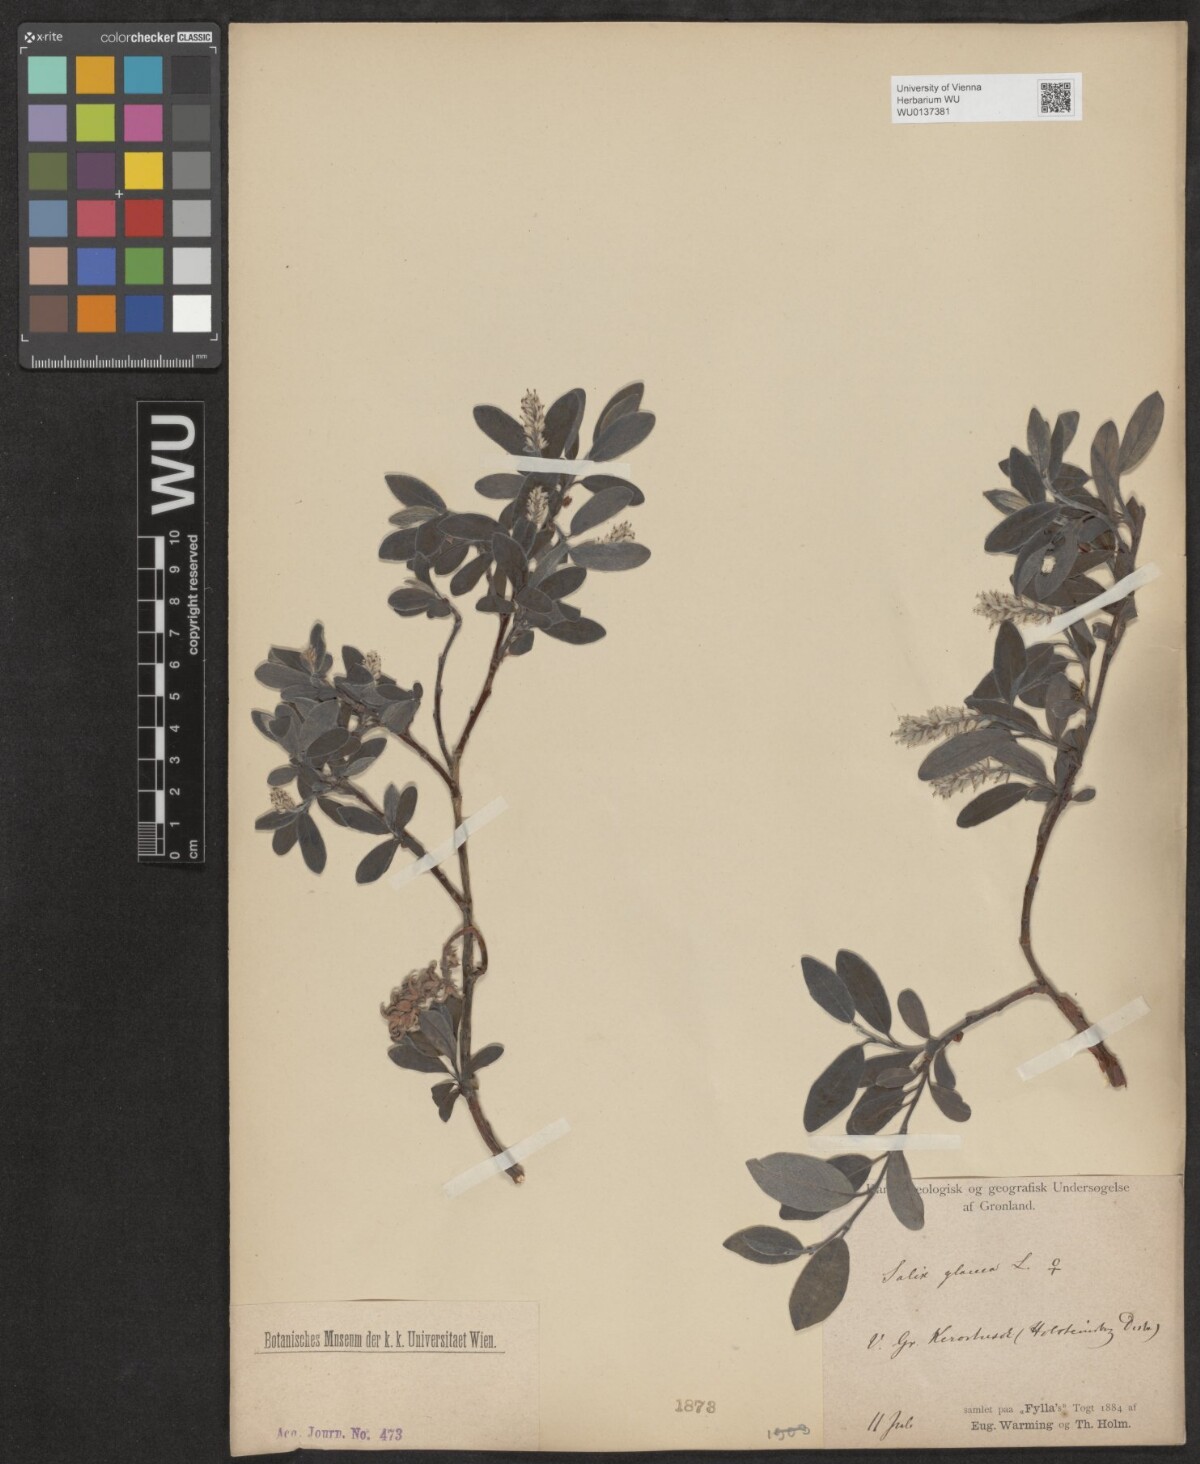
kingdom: Plantae
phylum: Tracheophyta
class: Magnoliopsida
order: Malpighiales
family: Salicaceae
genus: Salix
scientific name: Salix glauca
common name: Glaucous willow
